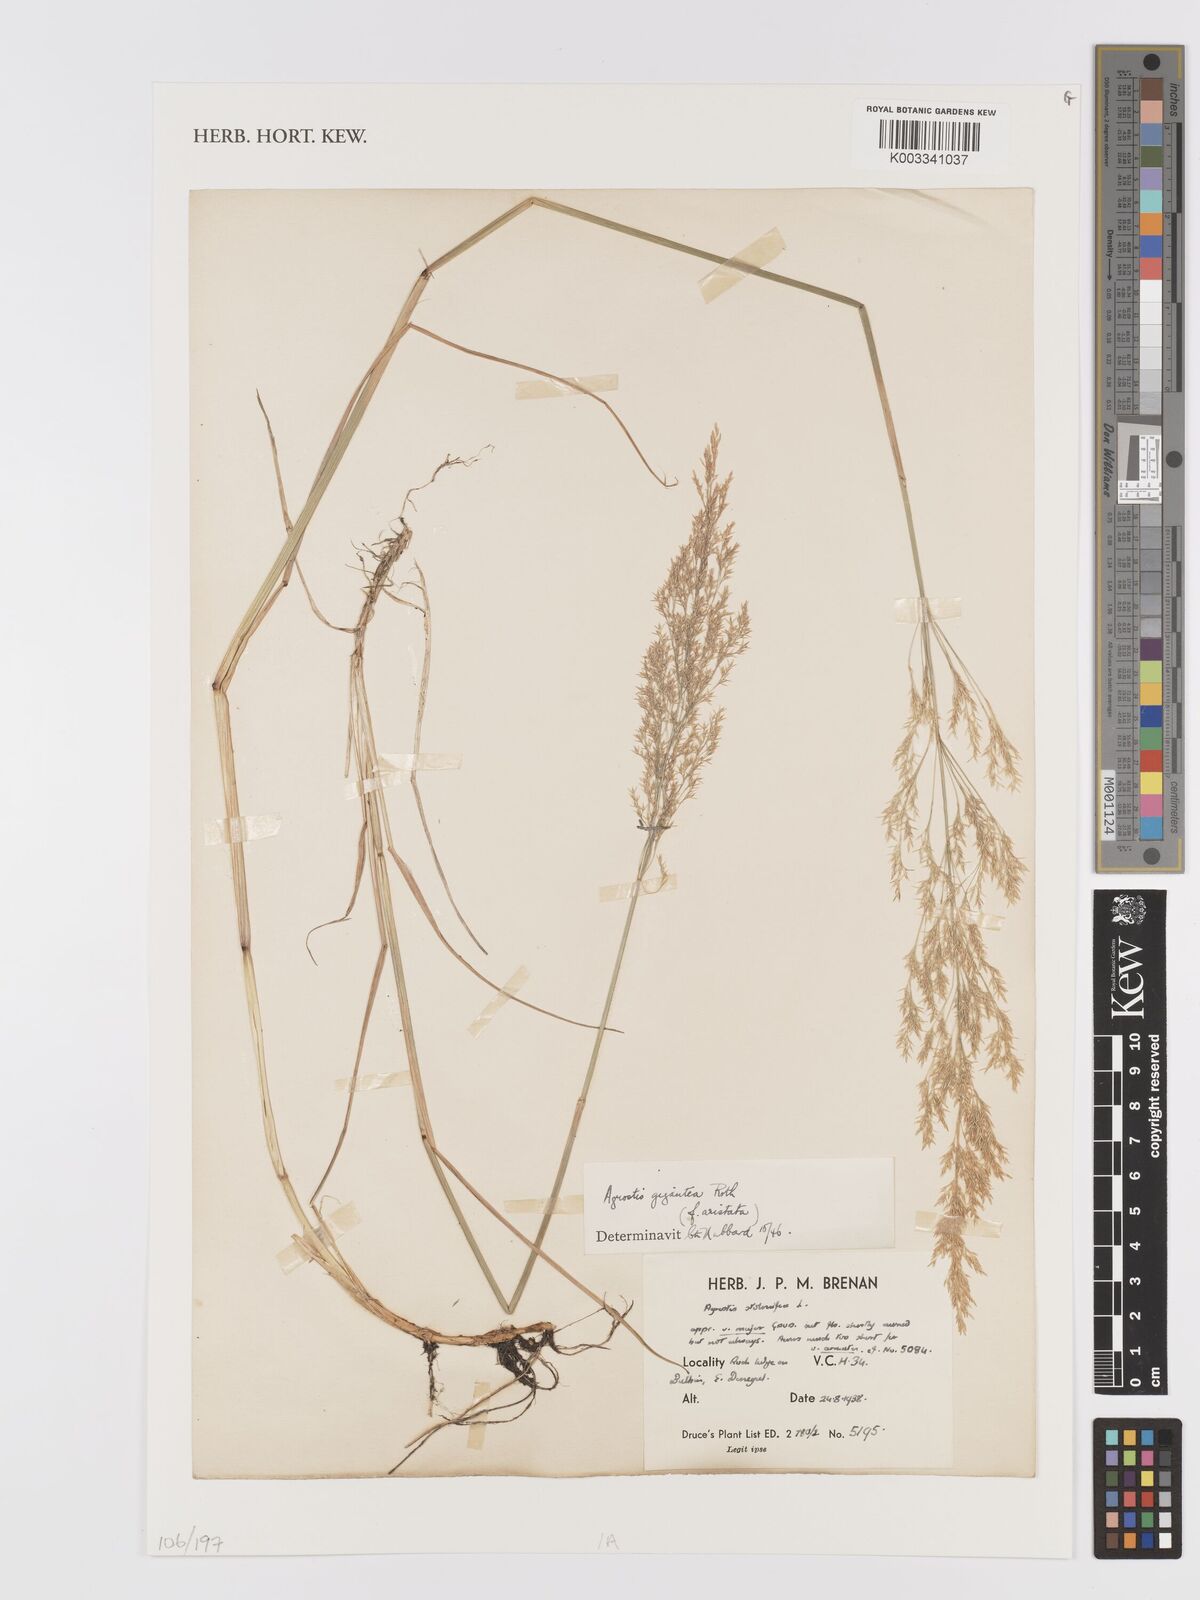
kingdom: Plantae
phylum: Tracheophyta
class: Liliopsida
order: Poales
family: Poaceae
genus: Agrostis
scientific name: Agrostis gigantea
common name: Black bent
